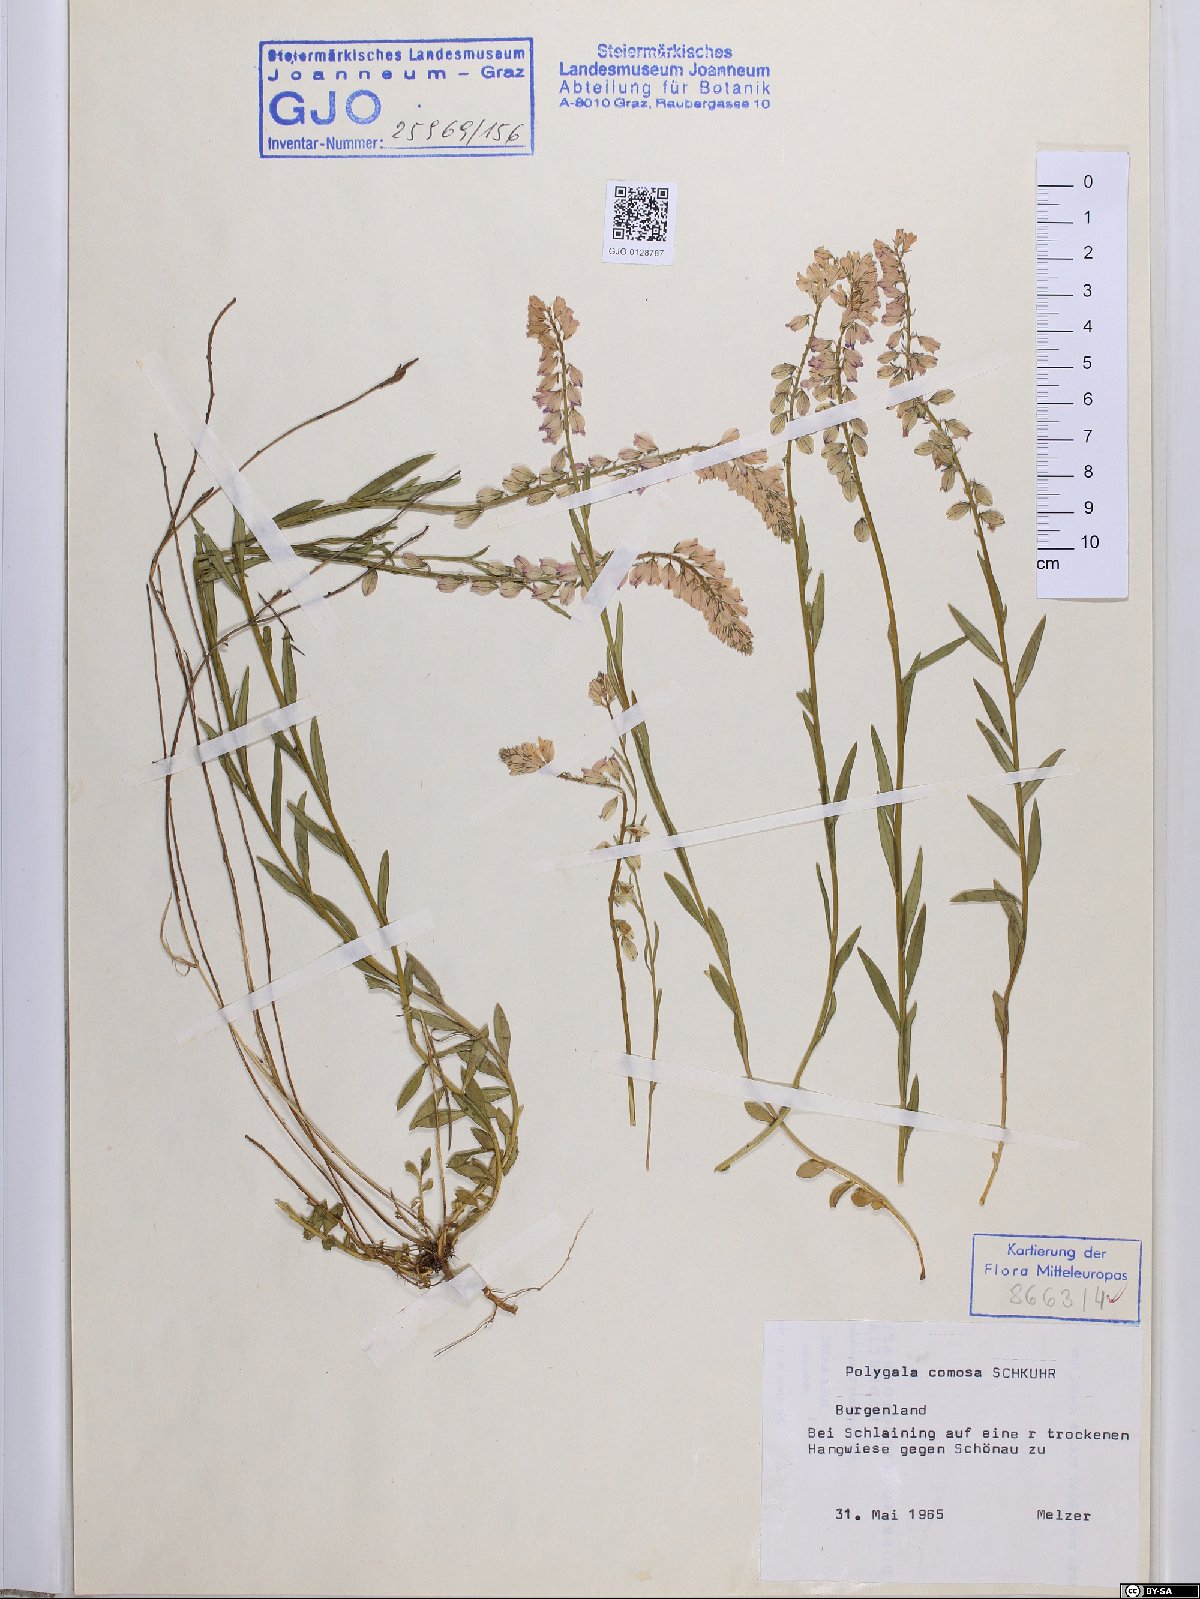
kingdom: Plantae
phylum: Tracheophyta
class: Magnoliopsida
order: Fabales
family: Polygalaceae
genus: Polygala
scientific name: Polygala comosa
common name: Tufted milkwort
